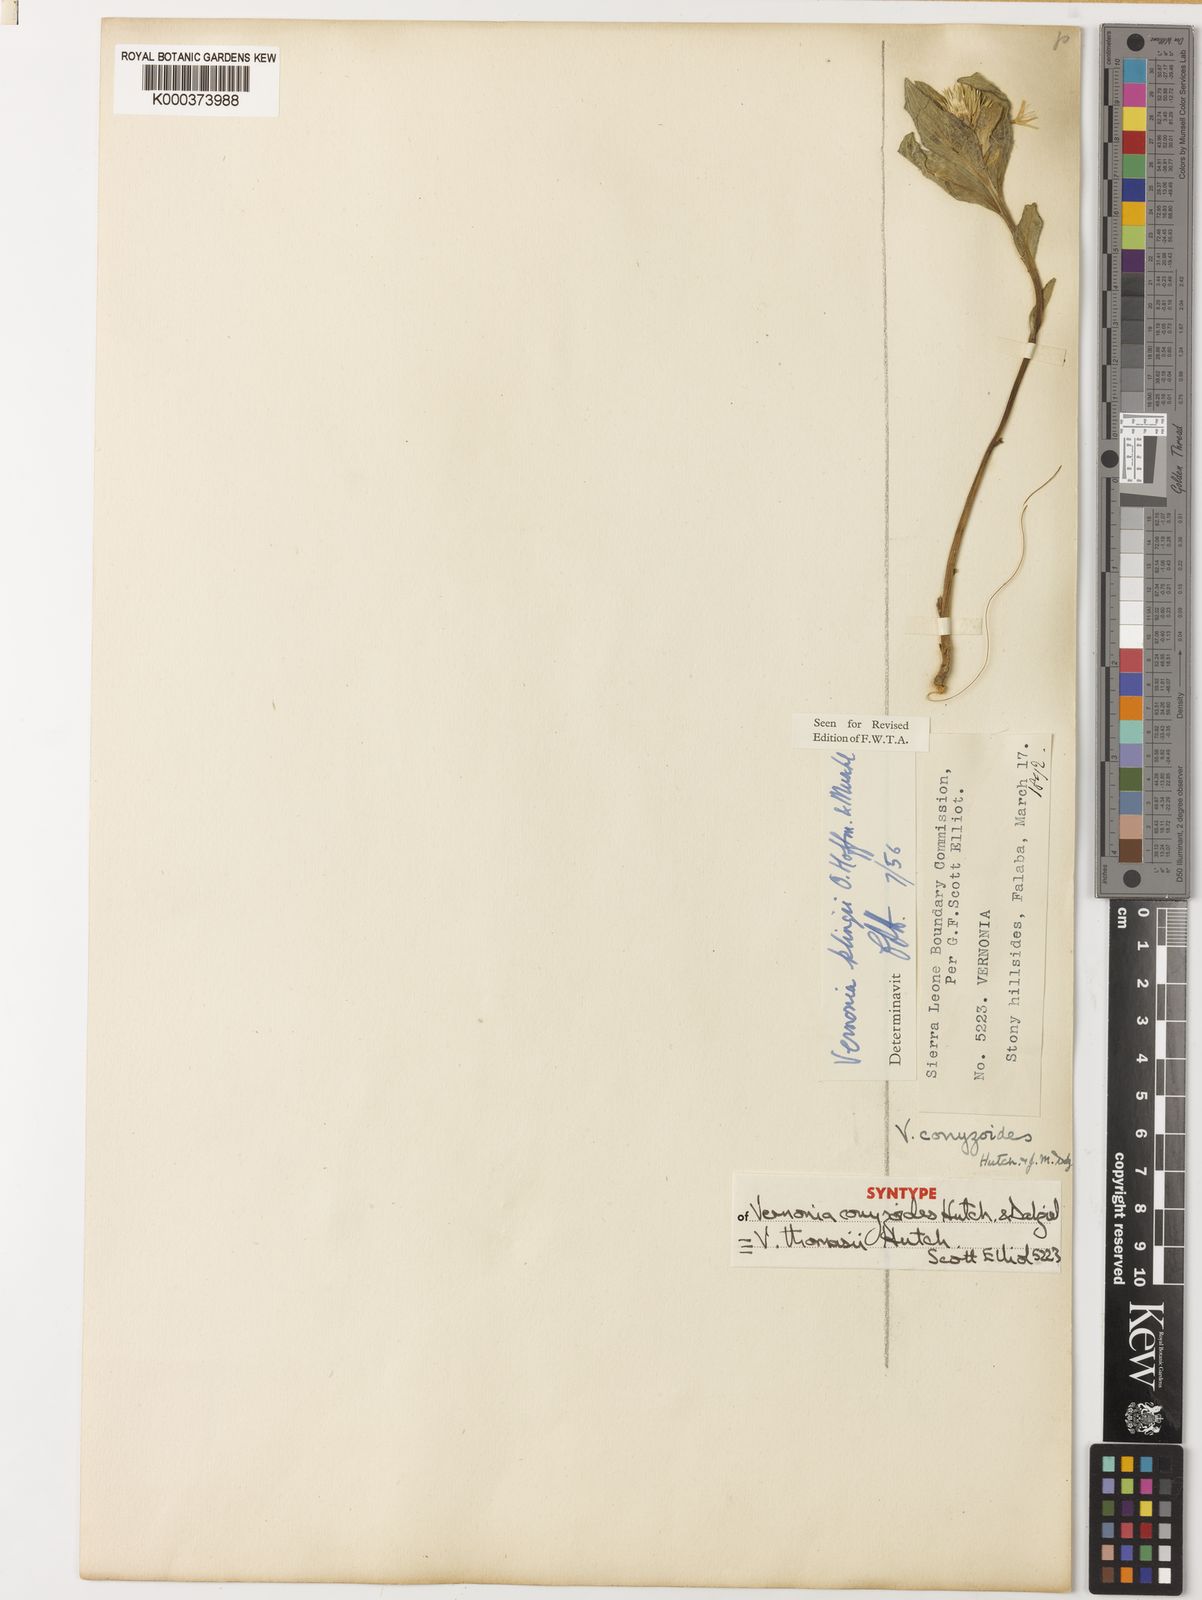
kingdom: Plantae
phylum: Tracheophyta
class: Magnoliopsida
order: Asterales
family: Asteraceae
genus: Vernoniastrum
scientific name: Vernoniastrum klingii
